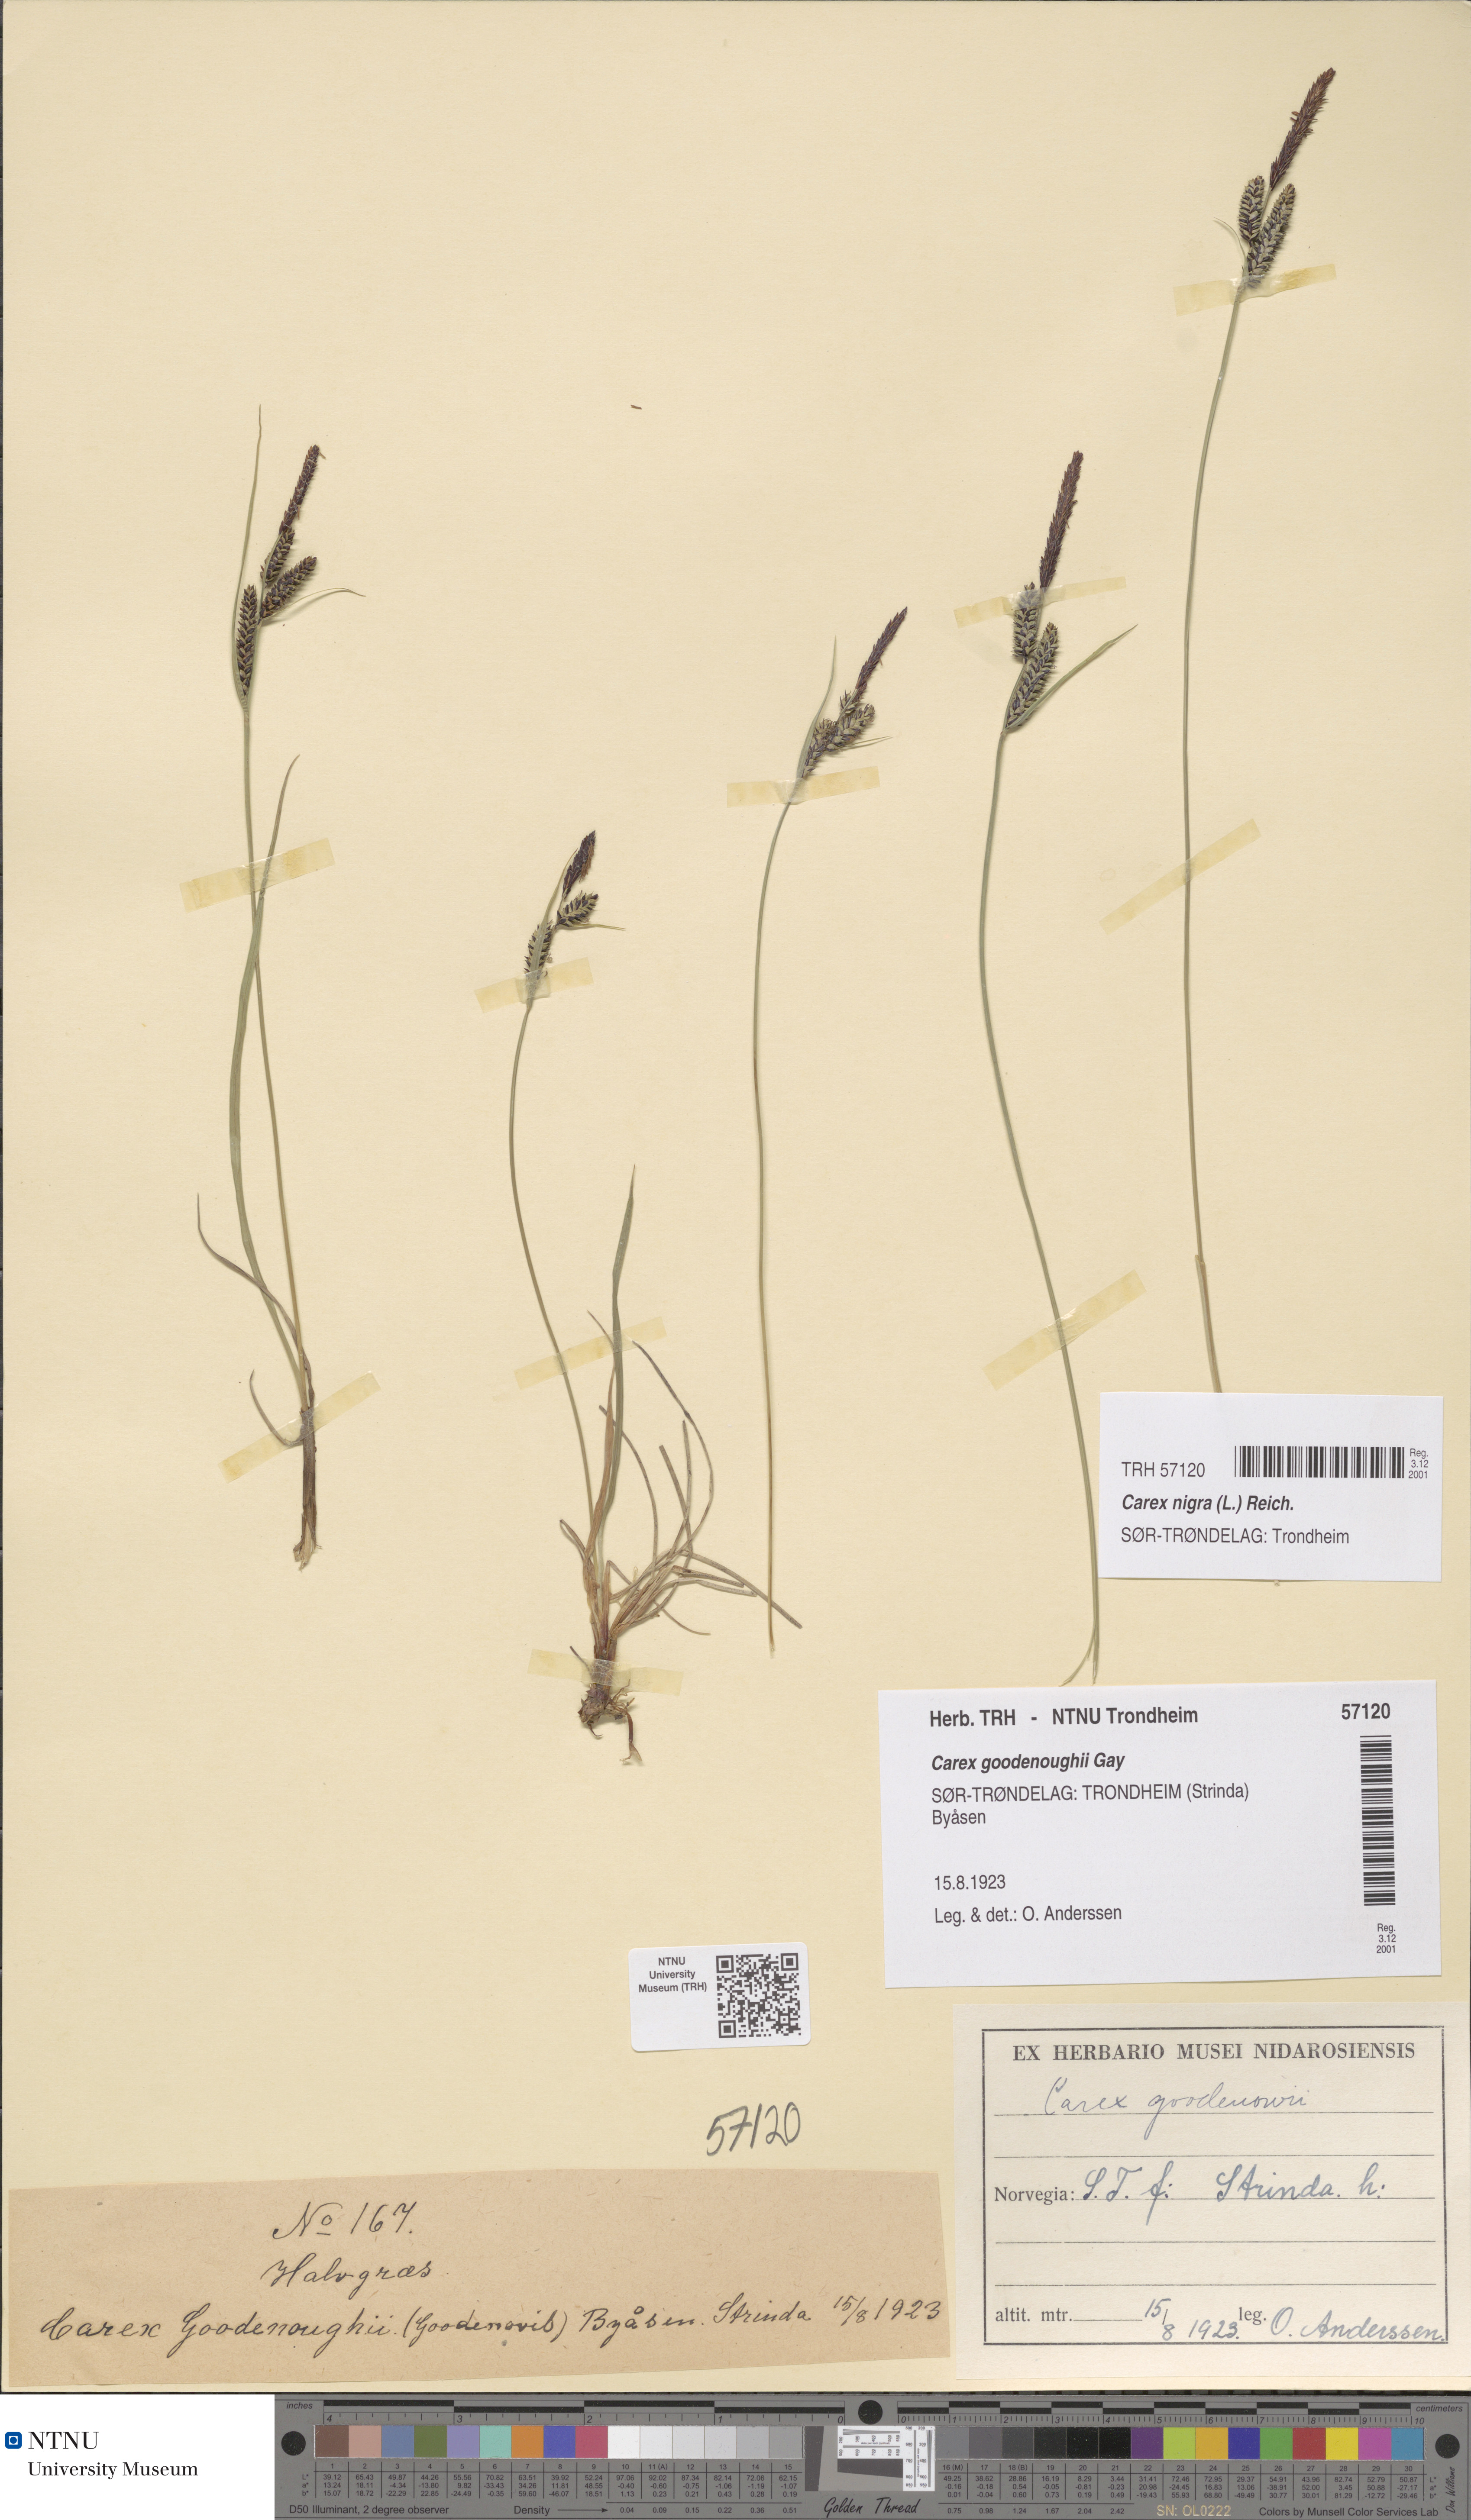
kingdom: Plantae
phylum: Tracheophyta
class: Liliopsida
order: Poales
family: Cyperaceae
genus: Carex
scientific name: Carex nigra
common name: Common sedge
